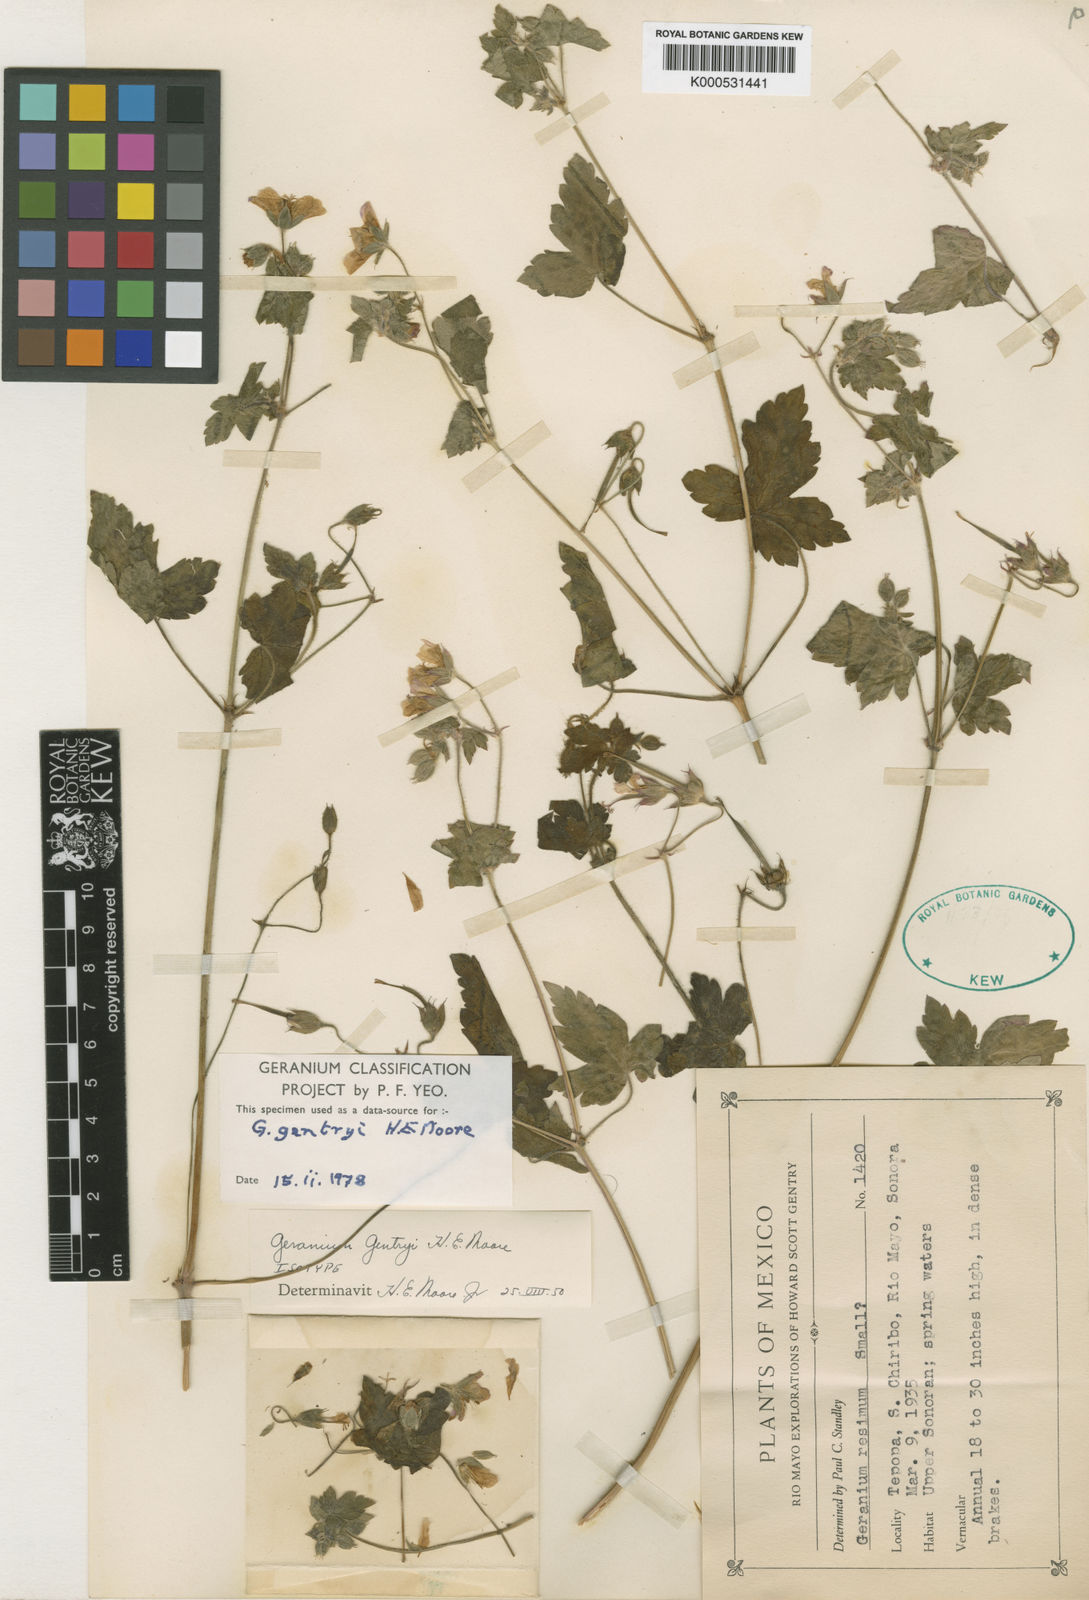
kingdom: Plantae
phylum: Tracheophyta
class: Magnoliopsida
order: Geraniales
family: Geraniaceae
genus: Geranium
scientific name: Geranium gentryi
